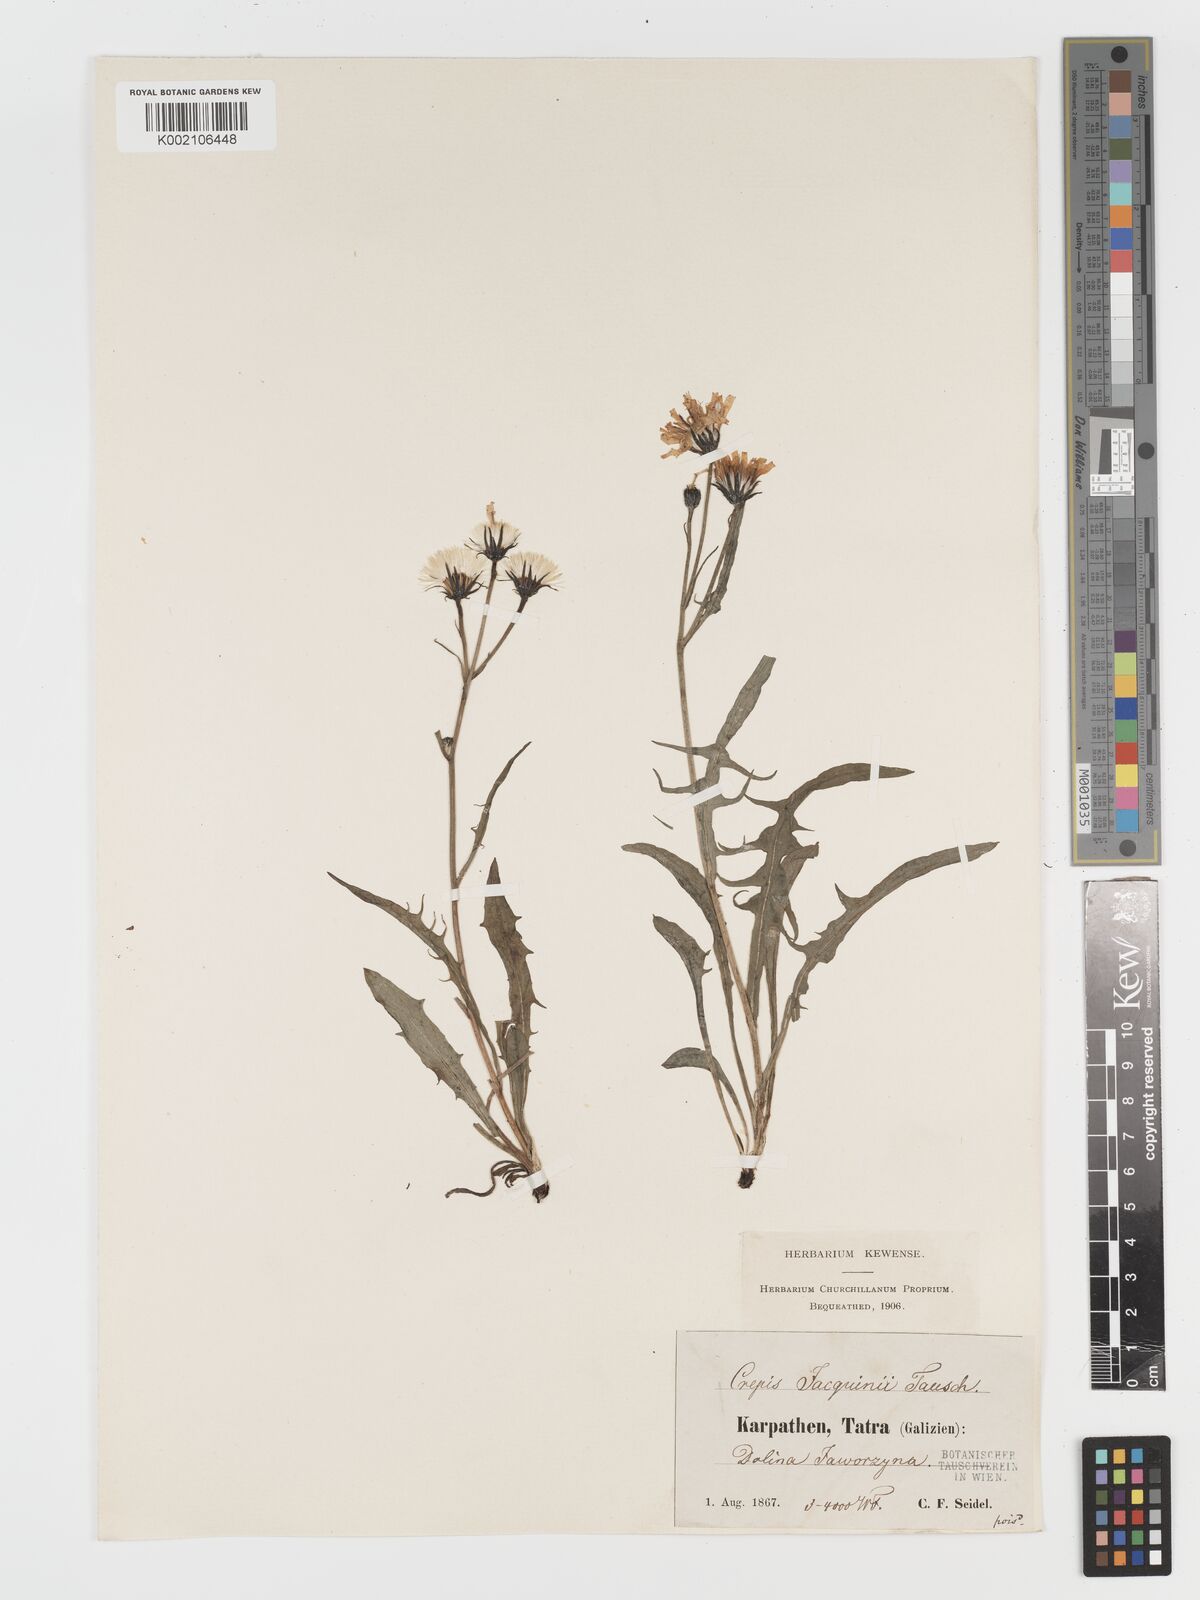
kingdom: Plantae
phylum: Tracheophyta
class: Magnoliopsida
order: Asterales
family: Asteraceae
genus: Crepis
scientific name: Crepis jacquinii
